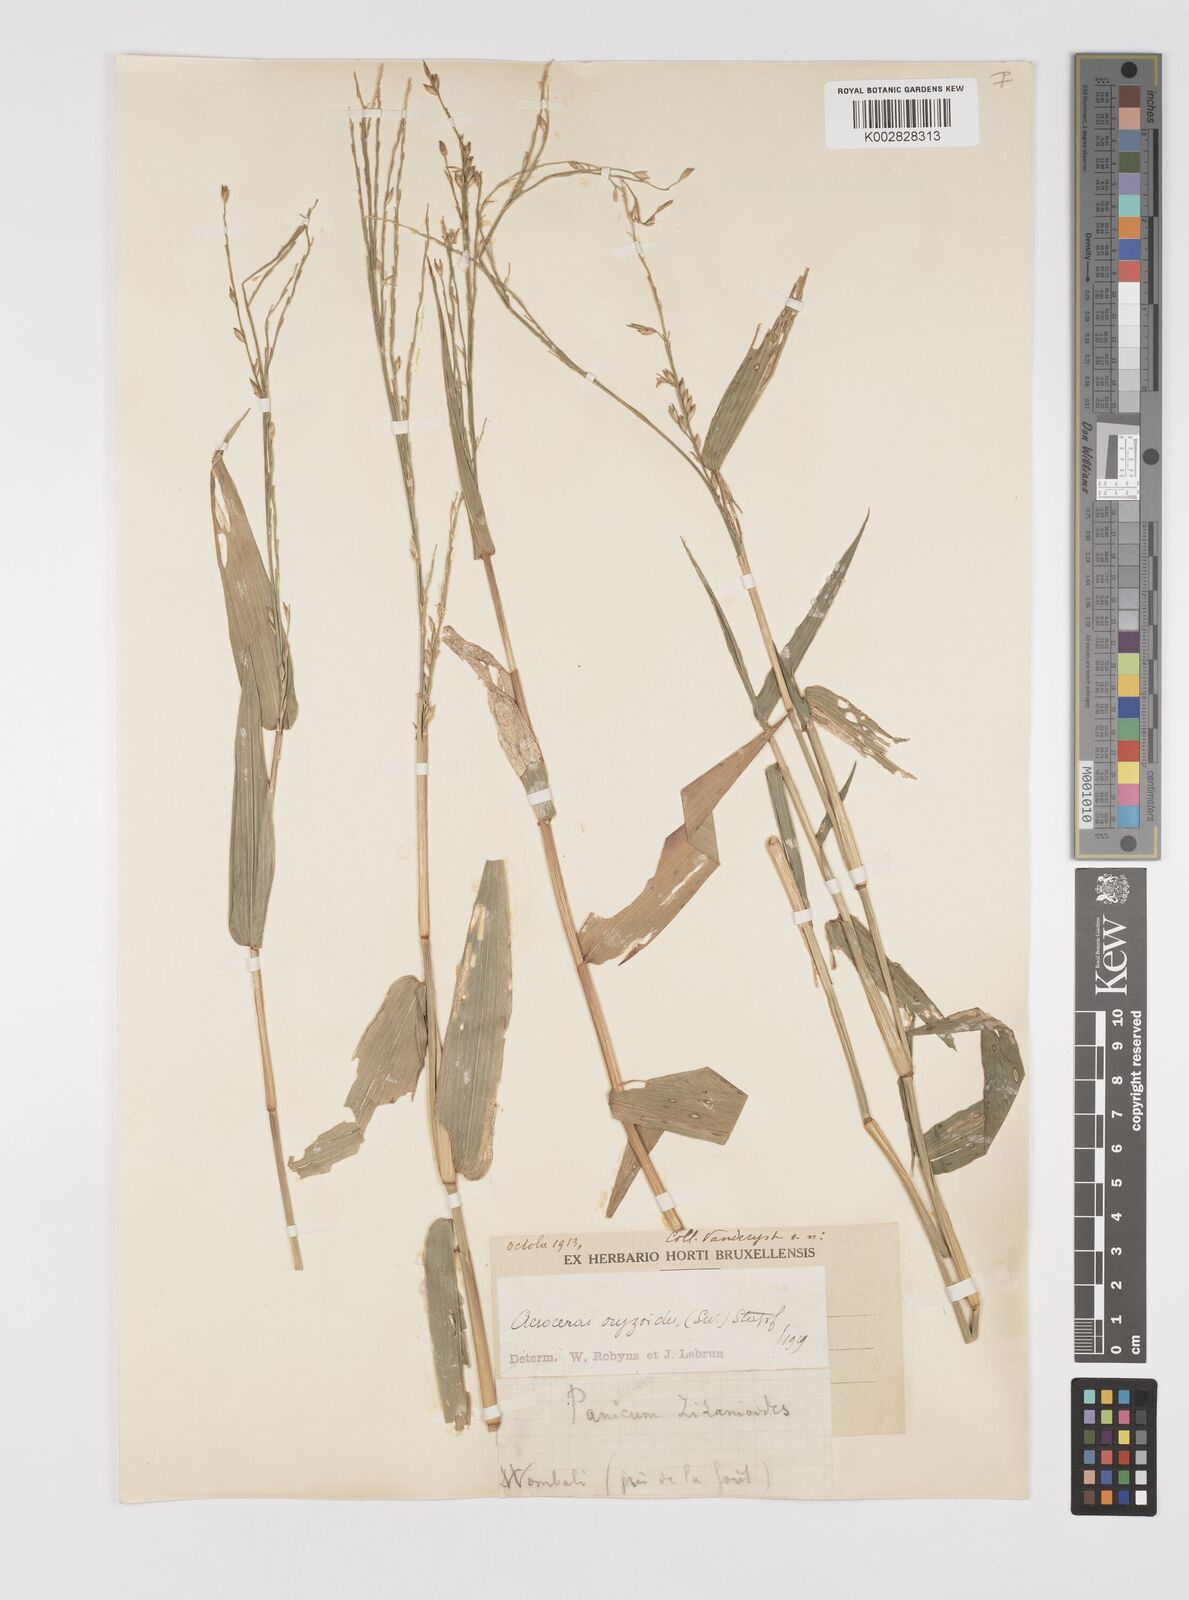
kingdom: Plantae
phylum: Tracheophyta
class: Liliopsida
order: Poales
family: Poaceae
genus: Acroceras
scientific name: Acroceras zizanioides
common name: Oat grass
